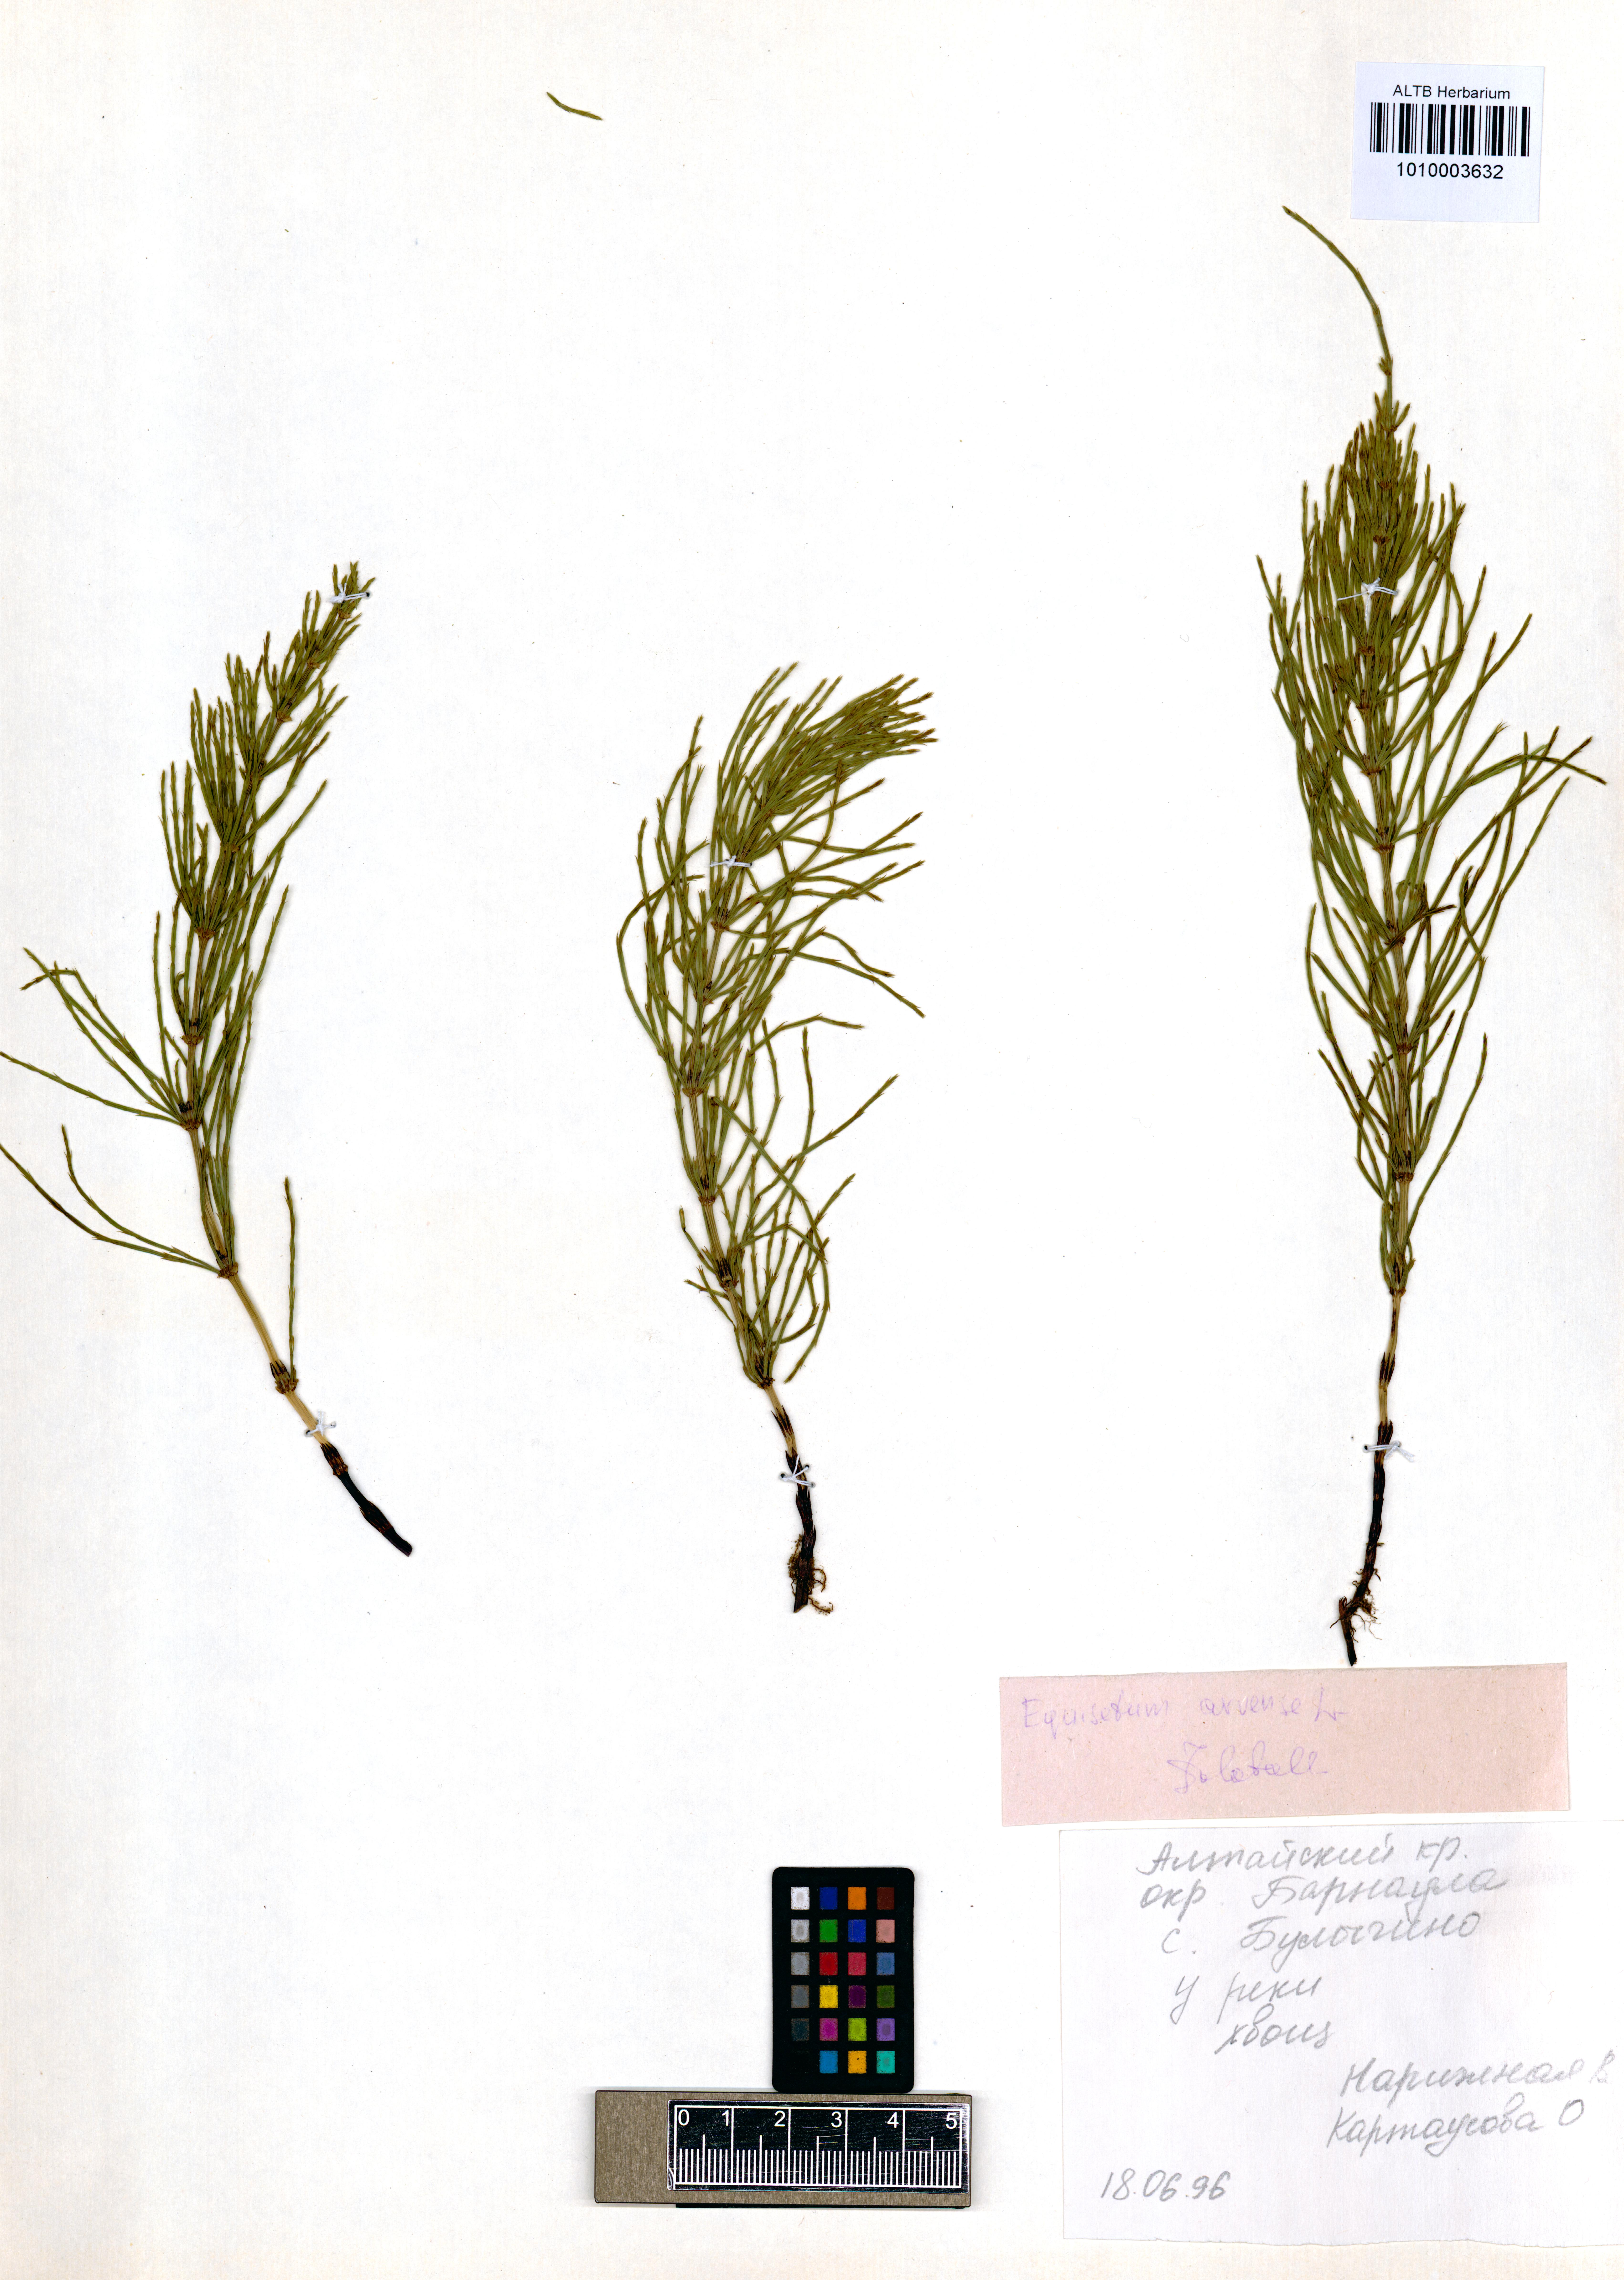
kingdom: Plantae
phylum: Tracheophyta
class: Polypodiopsida
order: Equisetales
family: Equisetaceae
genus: Equisetum
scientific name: Equisetum arvense
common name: Field horsetail
